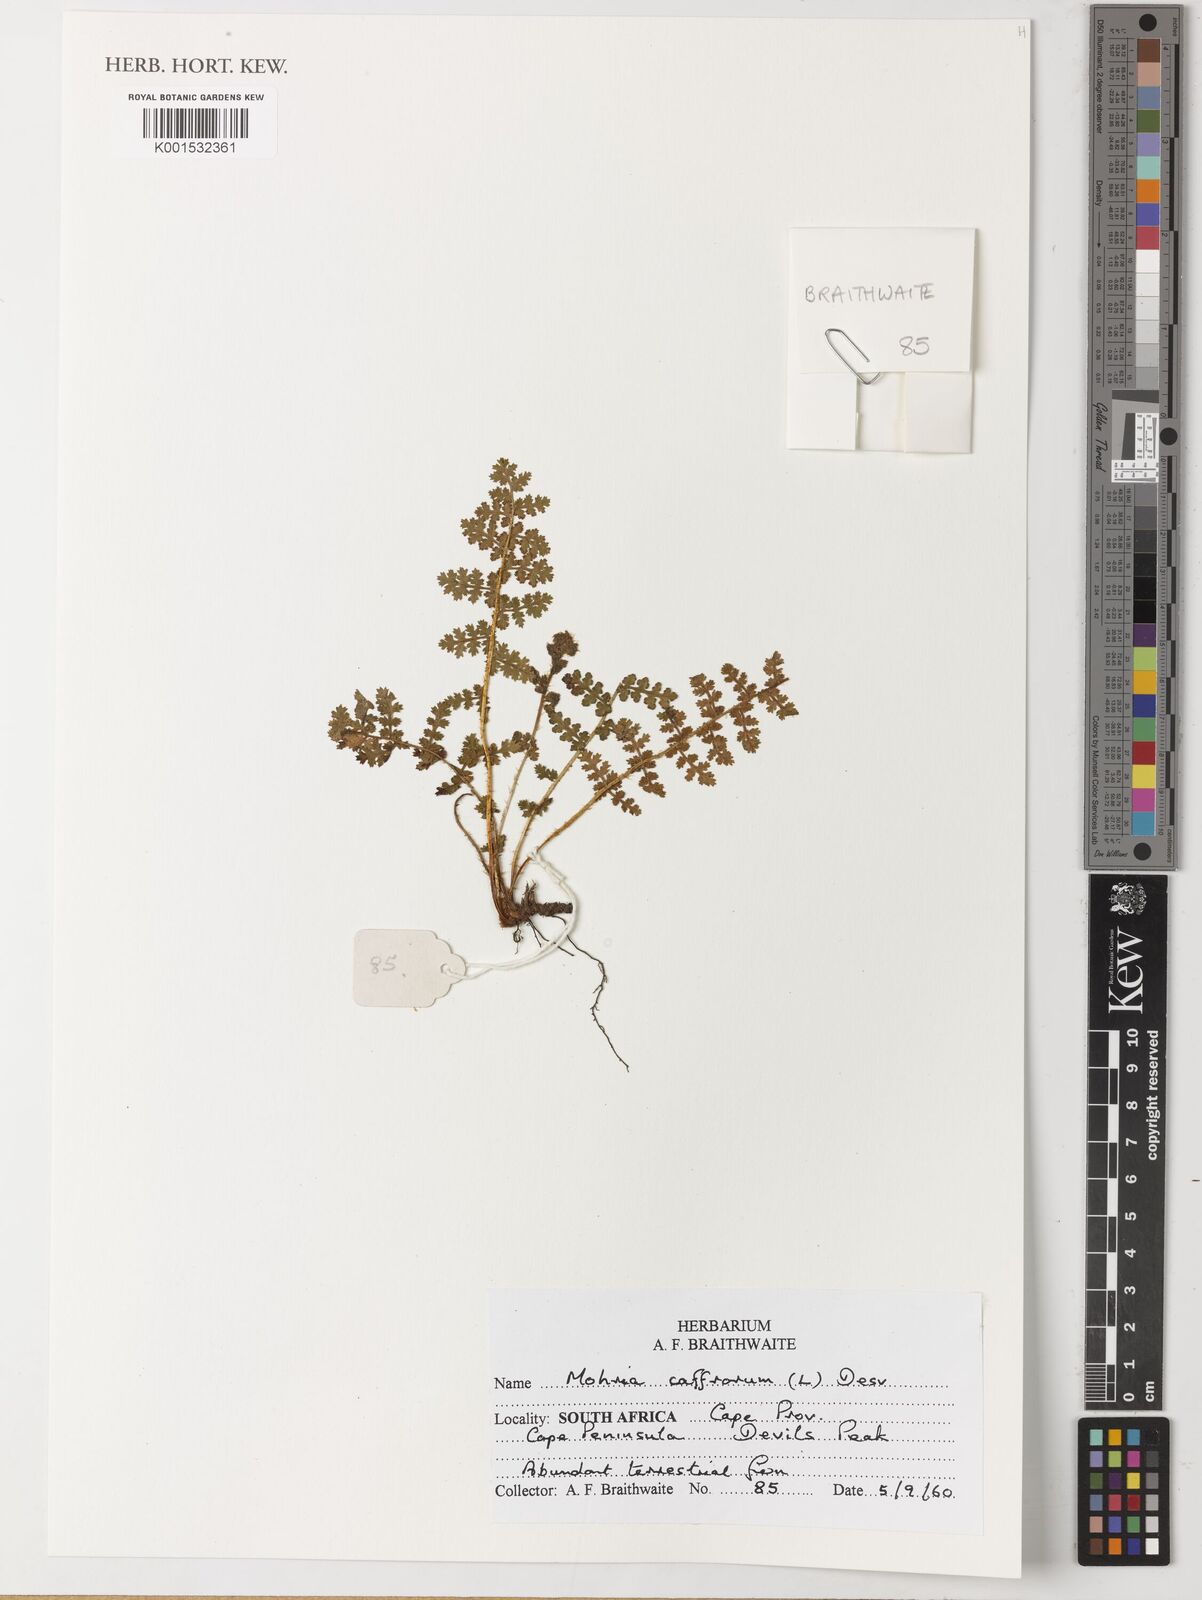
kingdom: Plantae
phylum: Tracheophyta
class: Polypodiopsida
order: Schizaeales
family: Anemiaceae
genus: Anemia
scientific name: Anemia caffrorum
